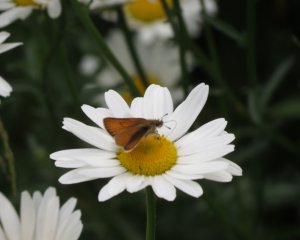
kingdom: Animalia
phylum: Arthropoda
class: Insecta
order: Lepidoptera
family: Hesperiidae
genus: Thymelicus
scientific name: Thymelicus lineola
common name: European Skipper
